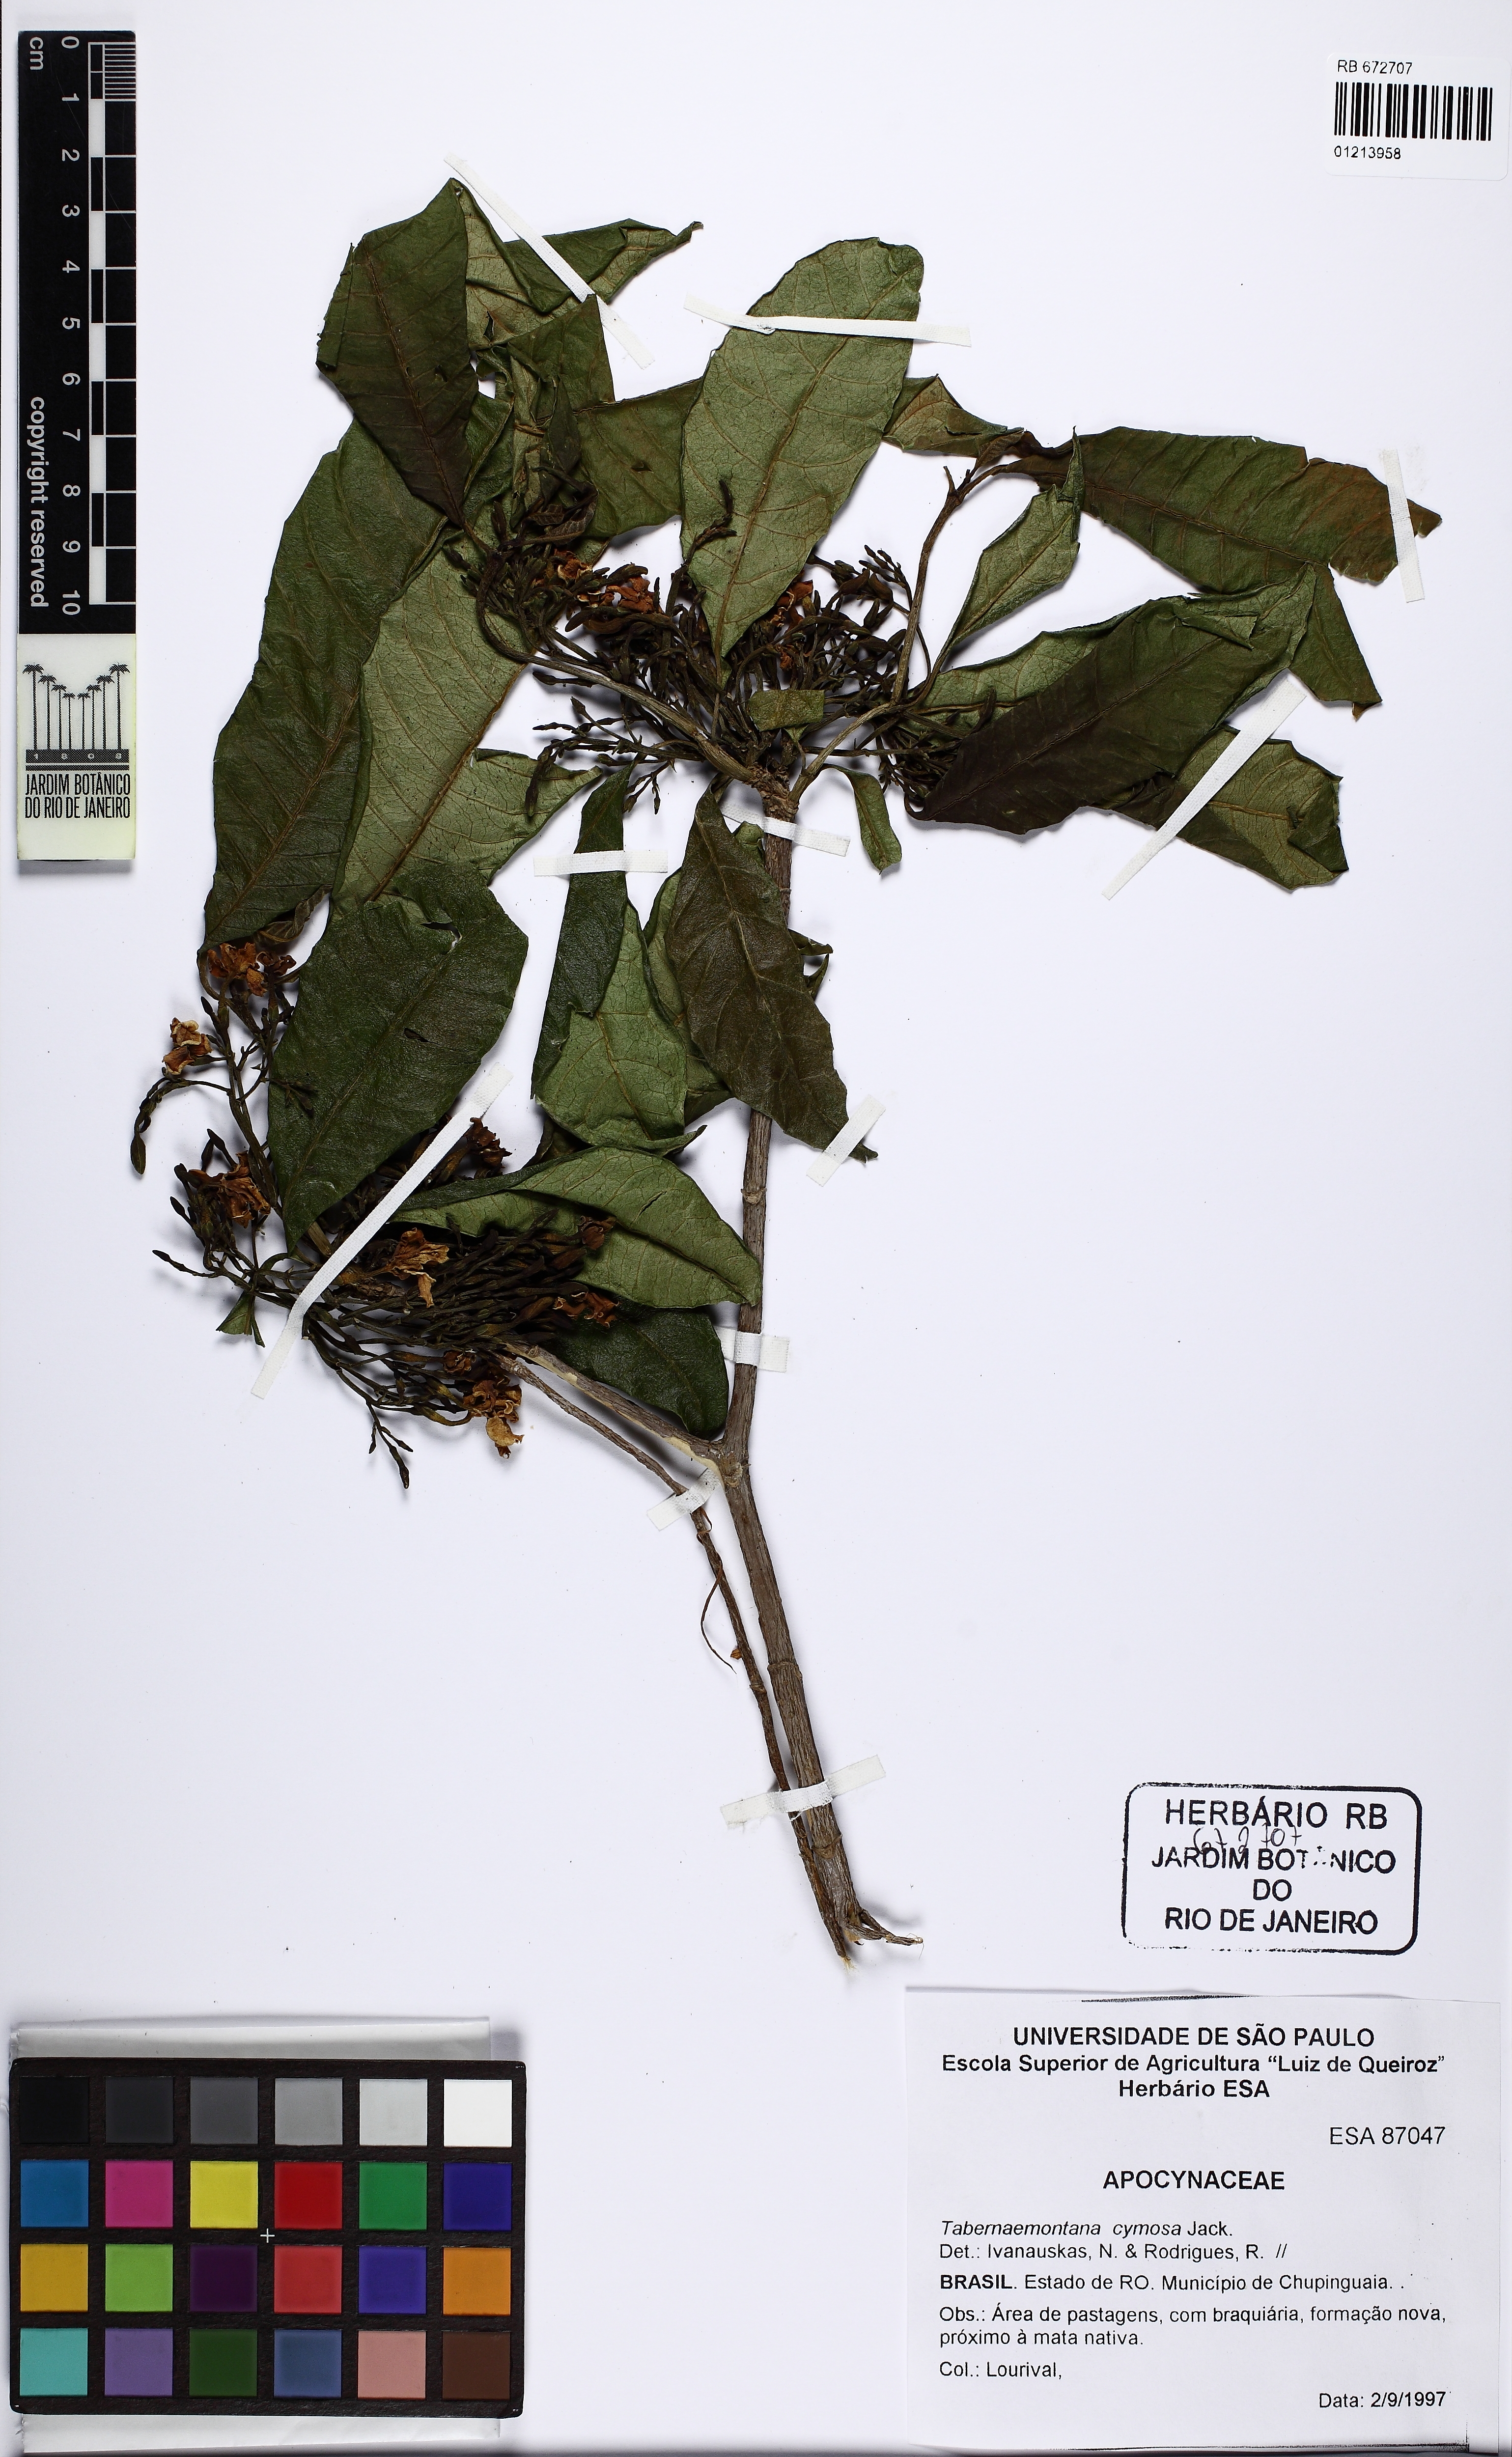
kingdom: Plantae
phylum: Tracheophyta
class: Magnoliopsida
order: Gentianales
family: Apocynaceae
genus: Tabernaemontana
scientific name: Tabernaemontana cymosa
